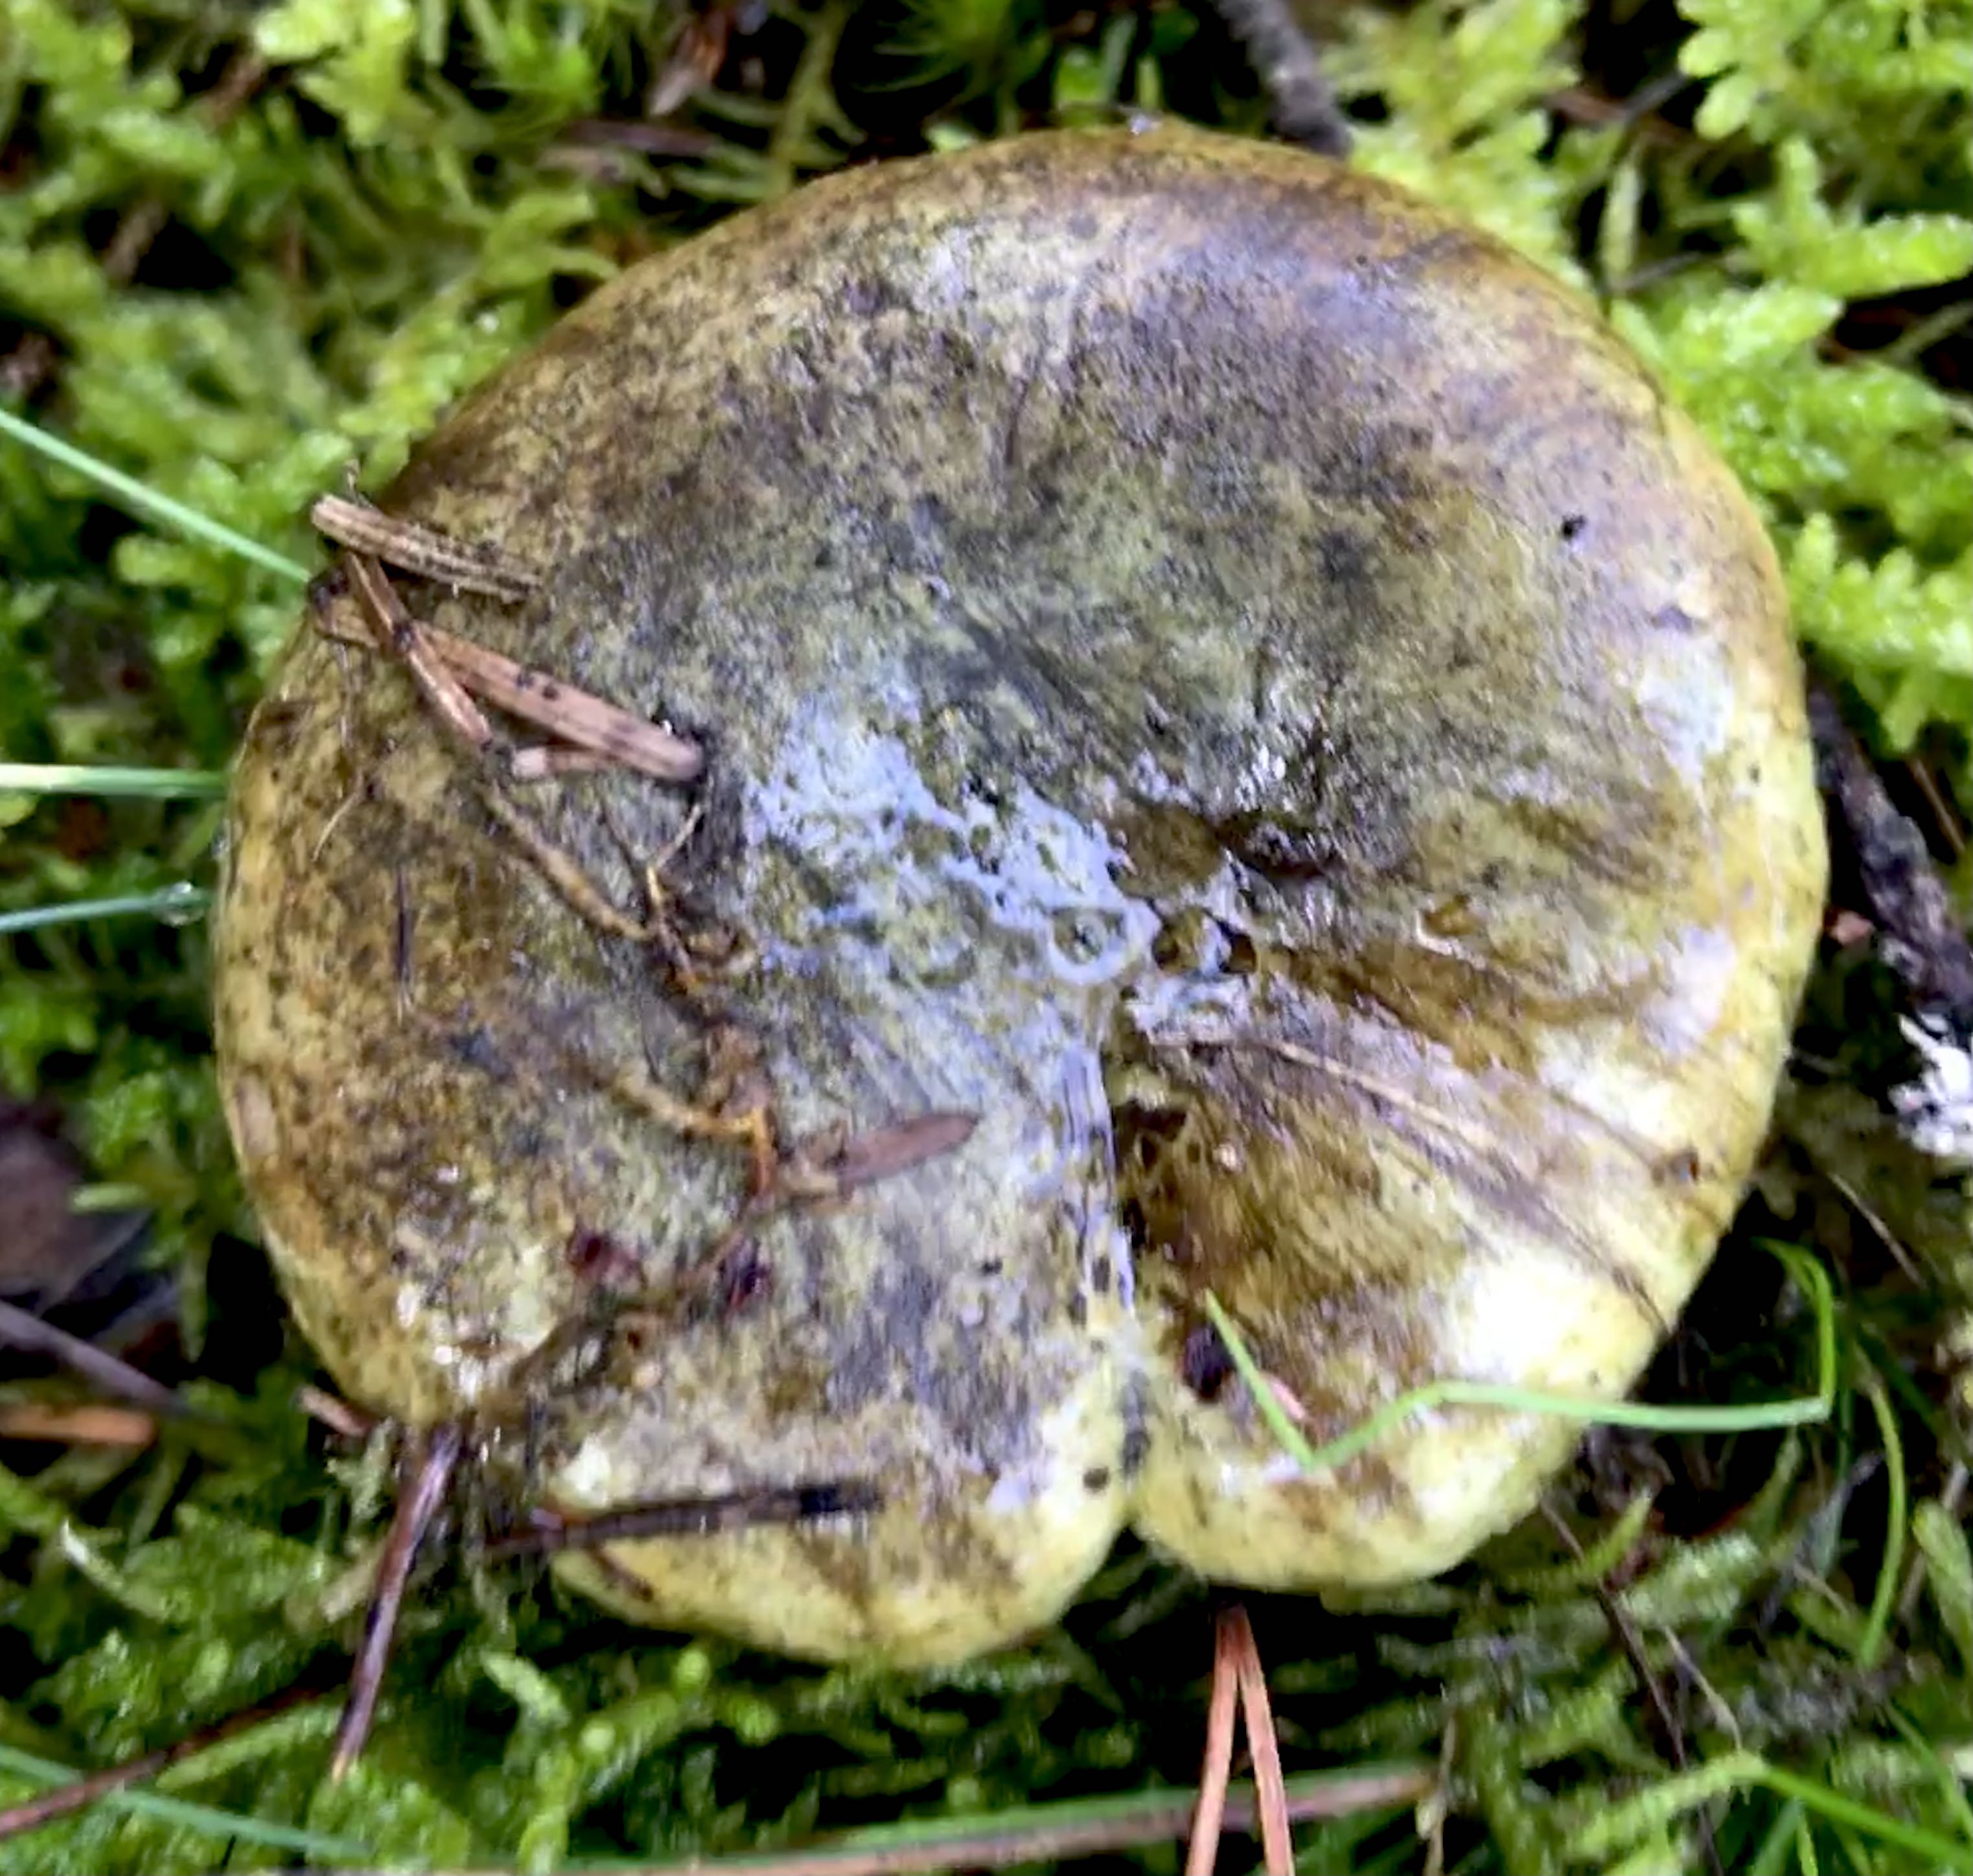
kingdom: Fungi
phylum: Basidiomycota
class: Agaricomycetes
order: Russulales
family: Russulaceae
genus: Lactarius
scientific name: Lactarius necator
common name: manddraber-mælkehat
